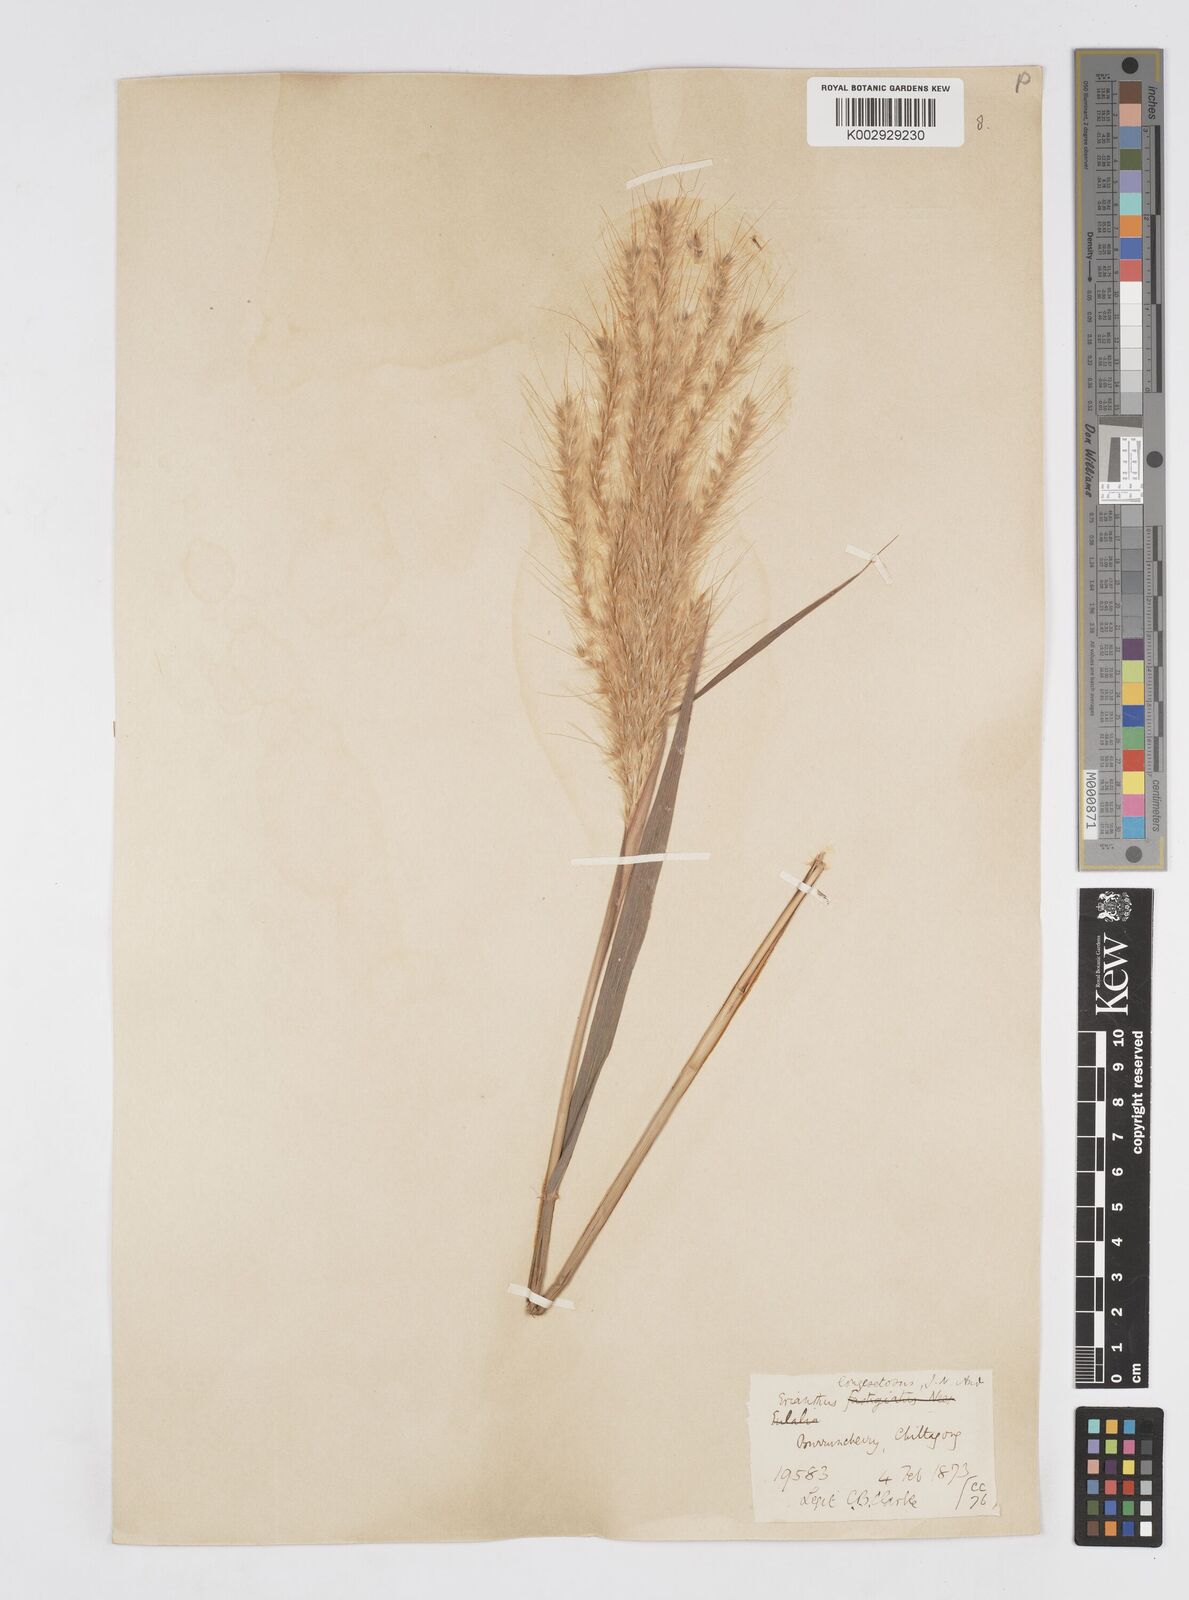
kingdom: Plantae
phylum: Tracheophyta
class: Liliopsida
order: Poales
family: Poaceae
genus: Melinis
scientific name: Melinis longiseta
